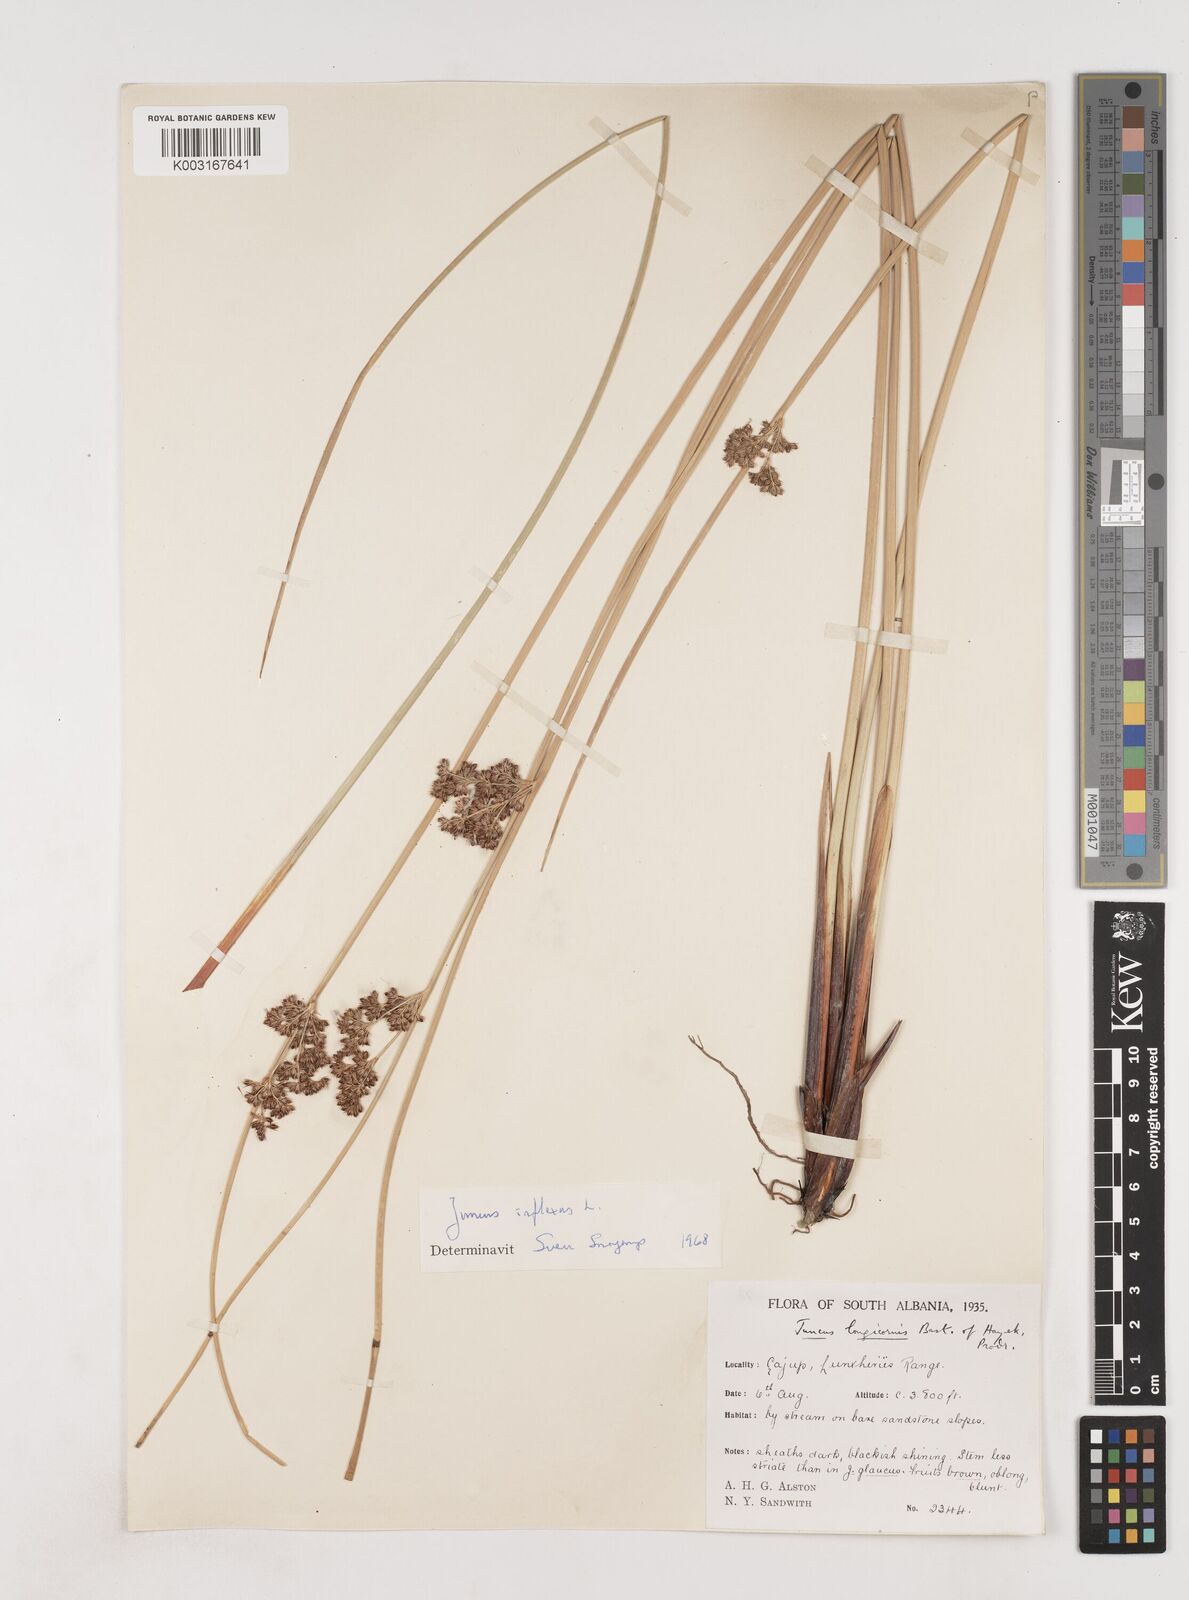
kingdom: Plantae
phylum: Tracheophyta
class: Liliopsida
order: Poales
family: Juncaceae
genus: Juncus
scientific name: Juncus inflexus
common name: Hard rush
